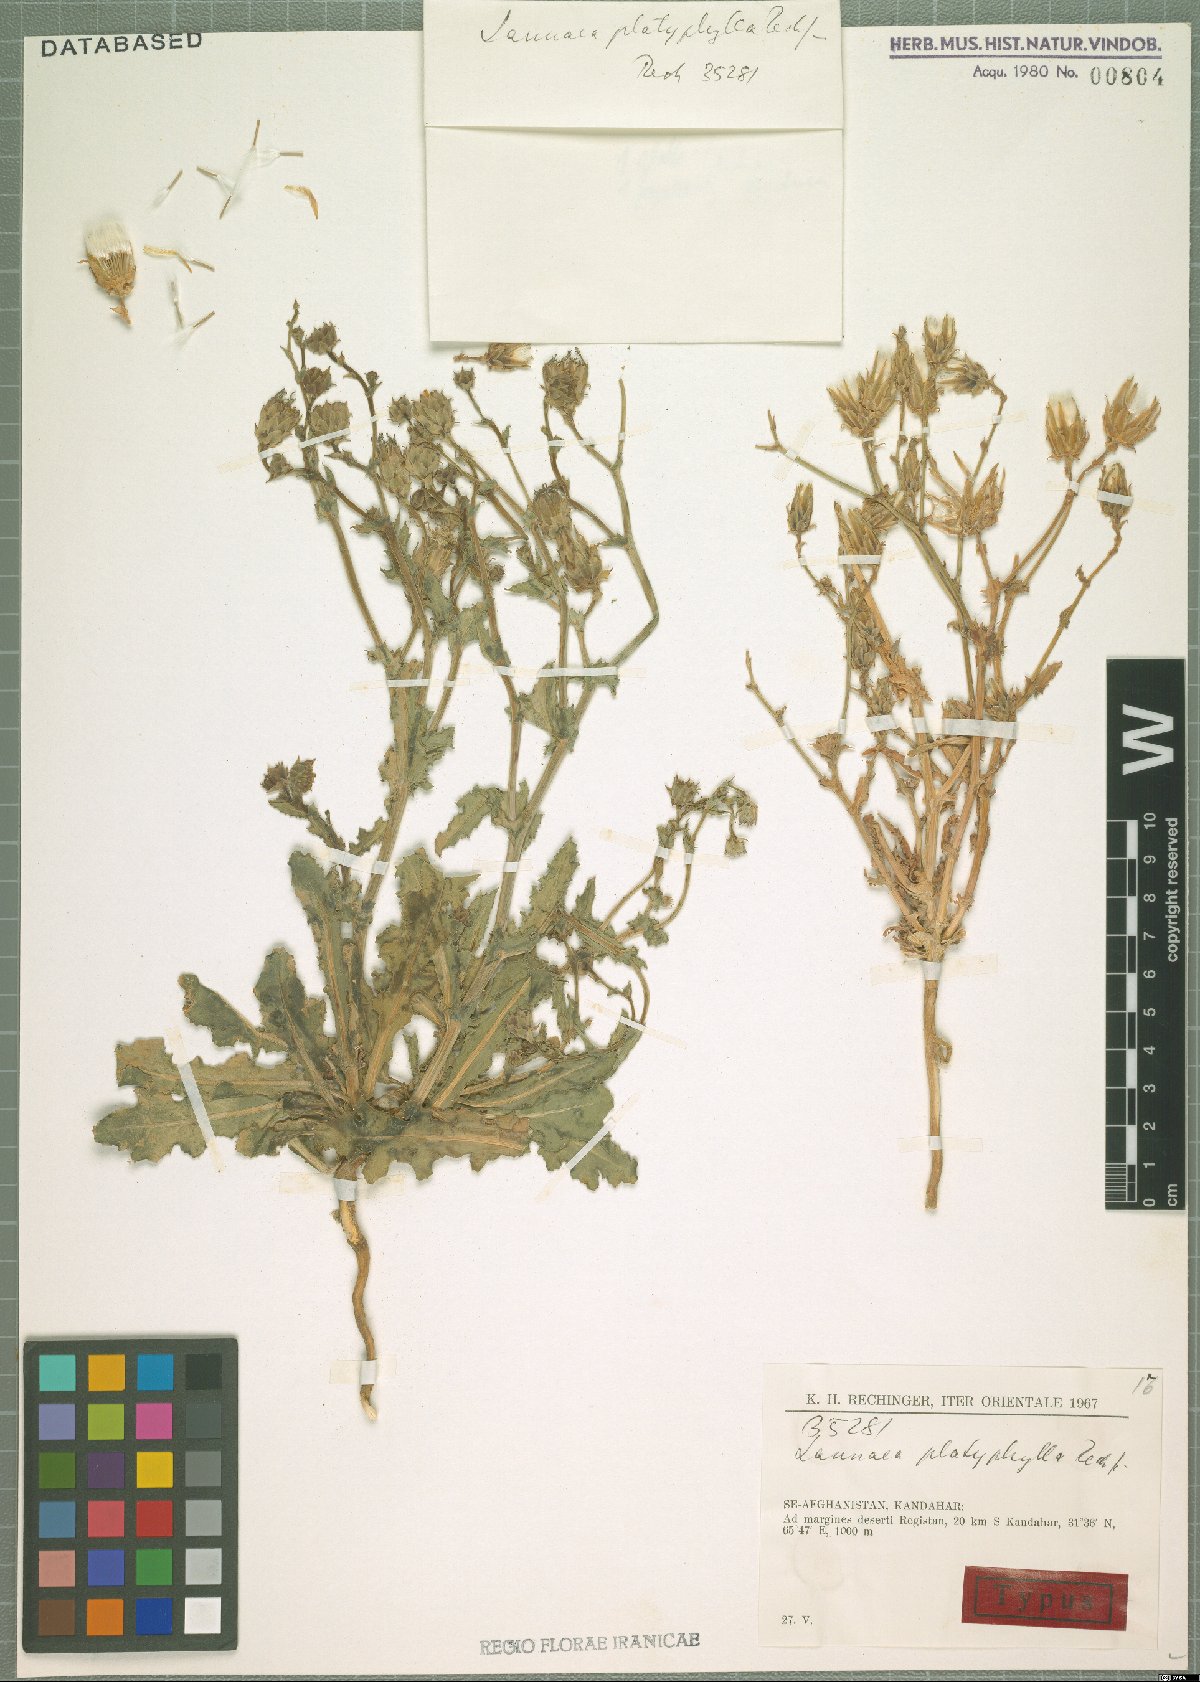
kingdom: Plantae
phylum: Tracheophyta
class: Magnoliopsida
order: Asterales
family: Asteraceae
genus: Launaea
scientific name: Launaea platyphylla
